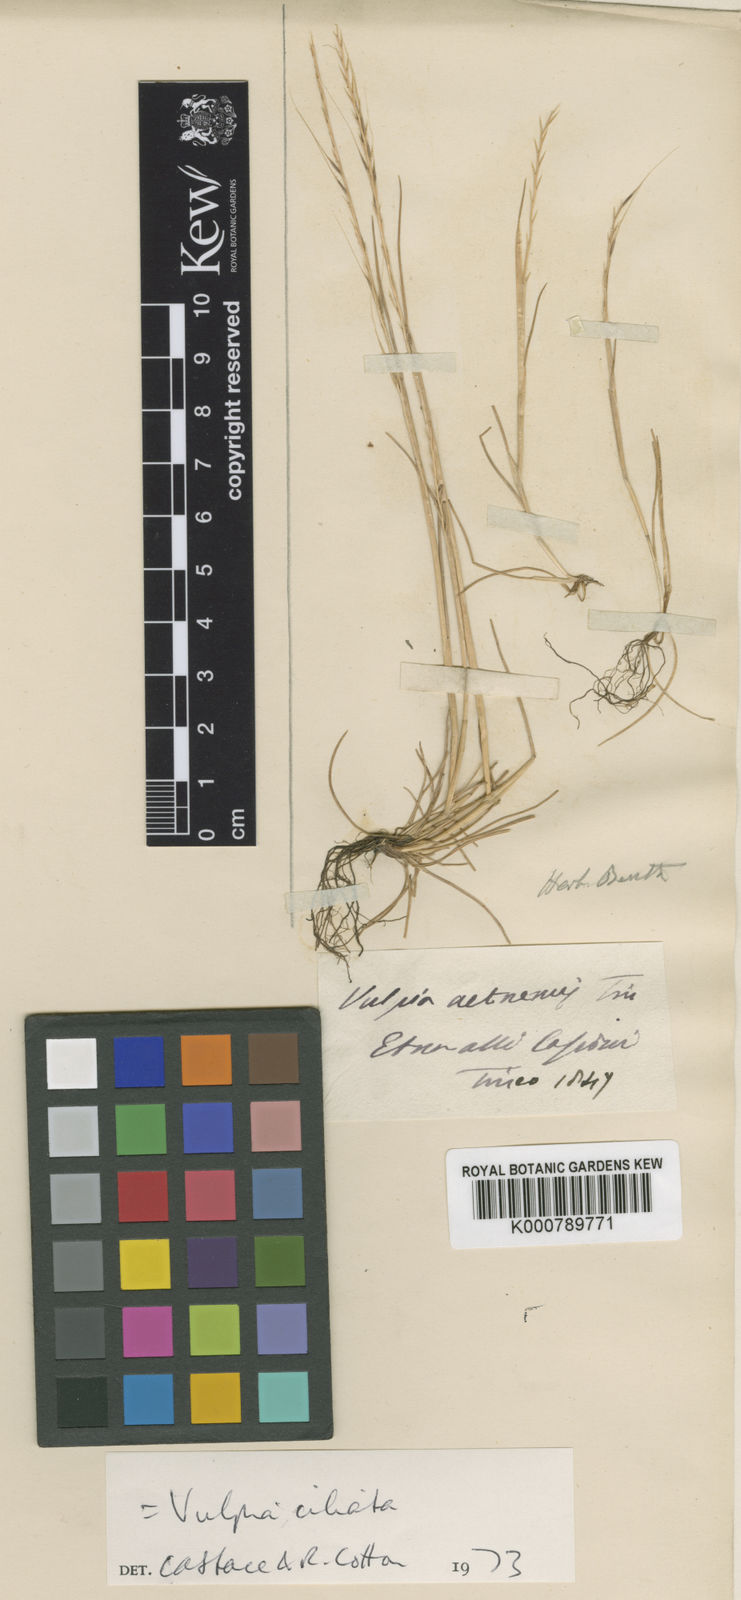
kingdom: Plantae
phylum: Tracheophyta
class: Liliopsida
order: Poales
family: Poaceae
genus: Festuca
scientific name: Festuca ambigua
